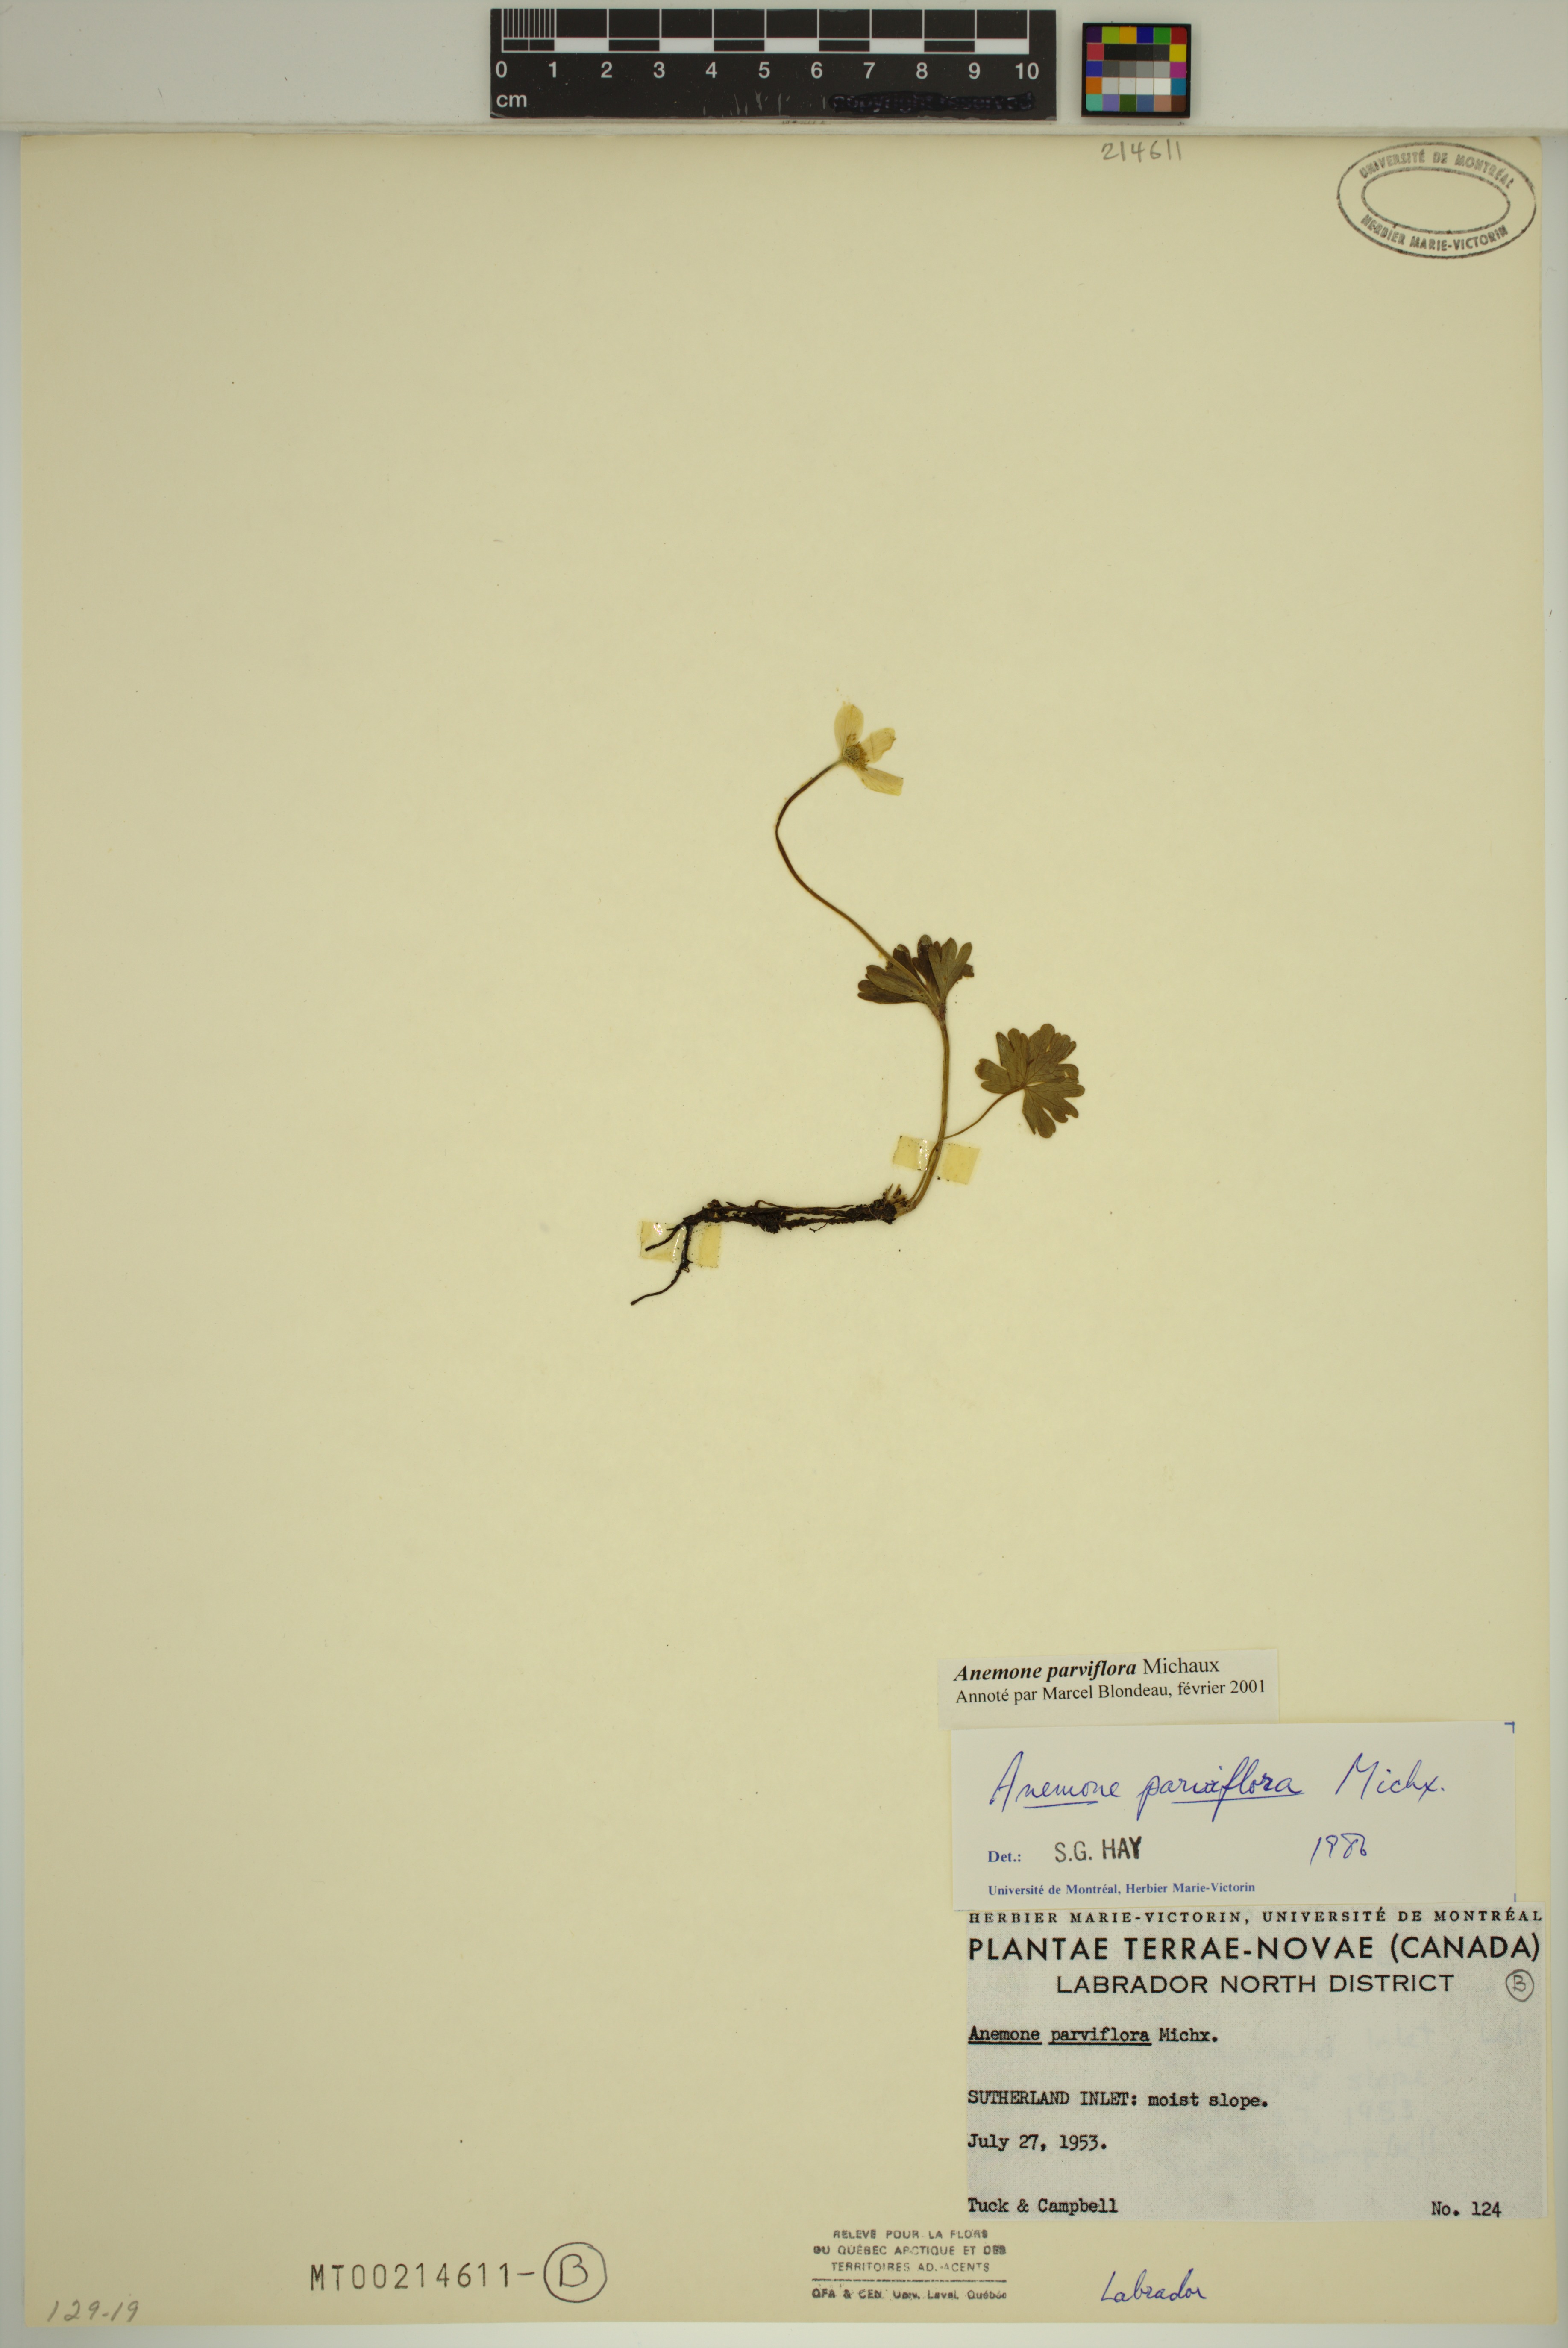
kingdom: Plantae
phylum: Tracheophyta
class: Magnoliopsida
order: Ranunculales
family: Ranunculaceae
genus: Anemone
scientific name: Anemone parviflora
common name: Northern anemone
